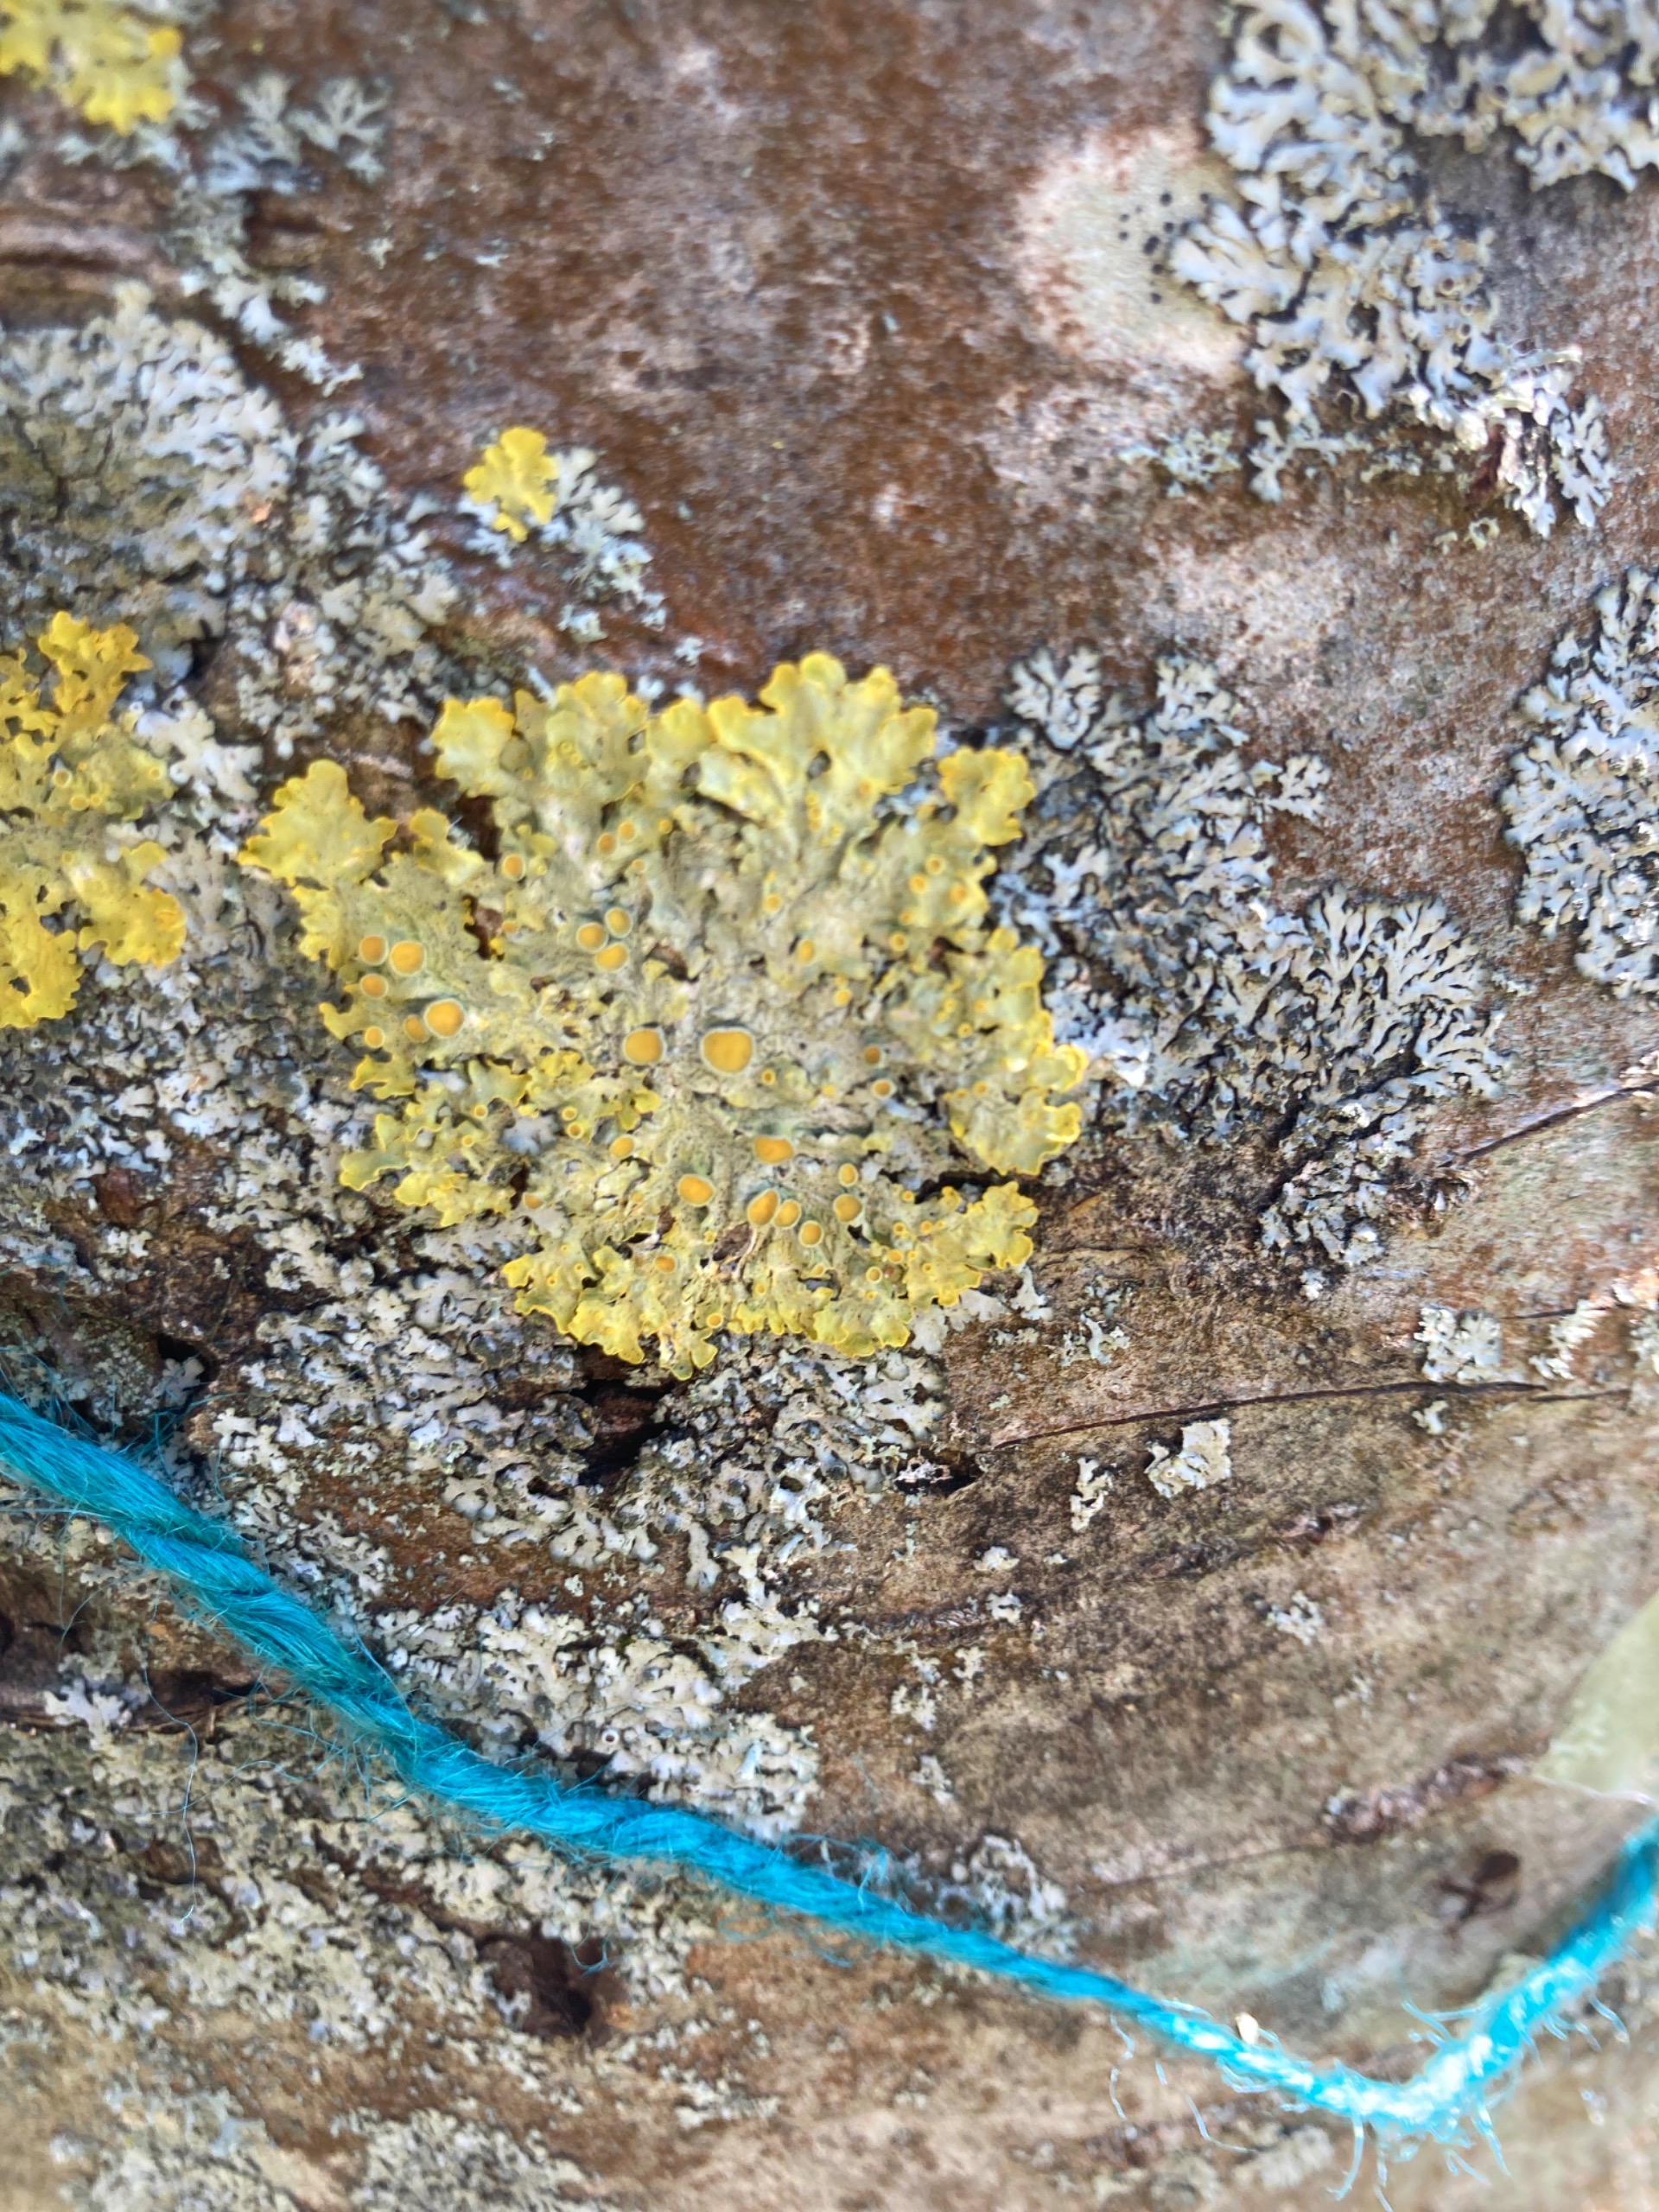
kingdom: Fungi
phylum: Ascomycota
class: Lecanoromycetes
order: Teloschistales
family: Teloschistaceae
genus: Xanthoria
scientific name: Xanthoria parietina
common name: Almindelig væggelav
